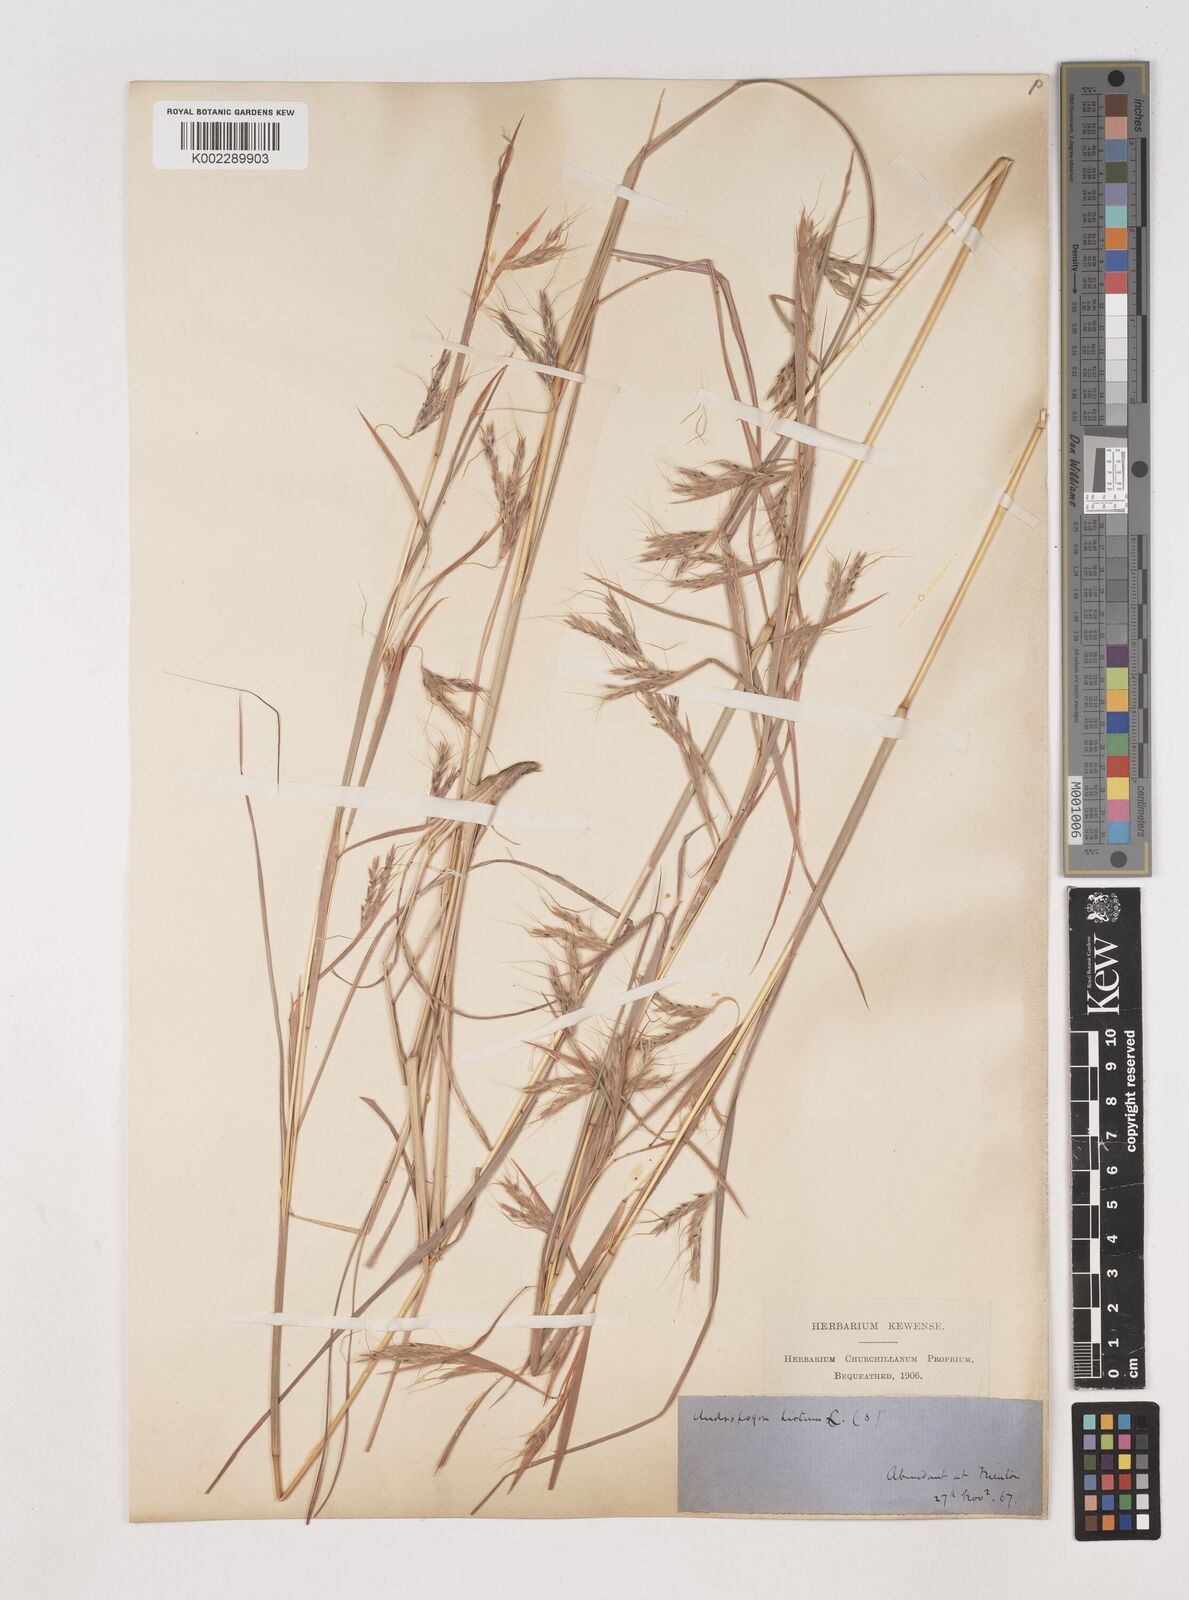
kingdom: Plantae
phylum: Tracheophyta
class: Liliopsida
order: Poales
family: Poaceae
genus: Hyparrhenia
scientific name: Hyparrhenia hirta
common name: Thatching grass
